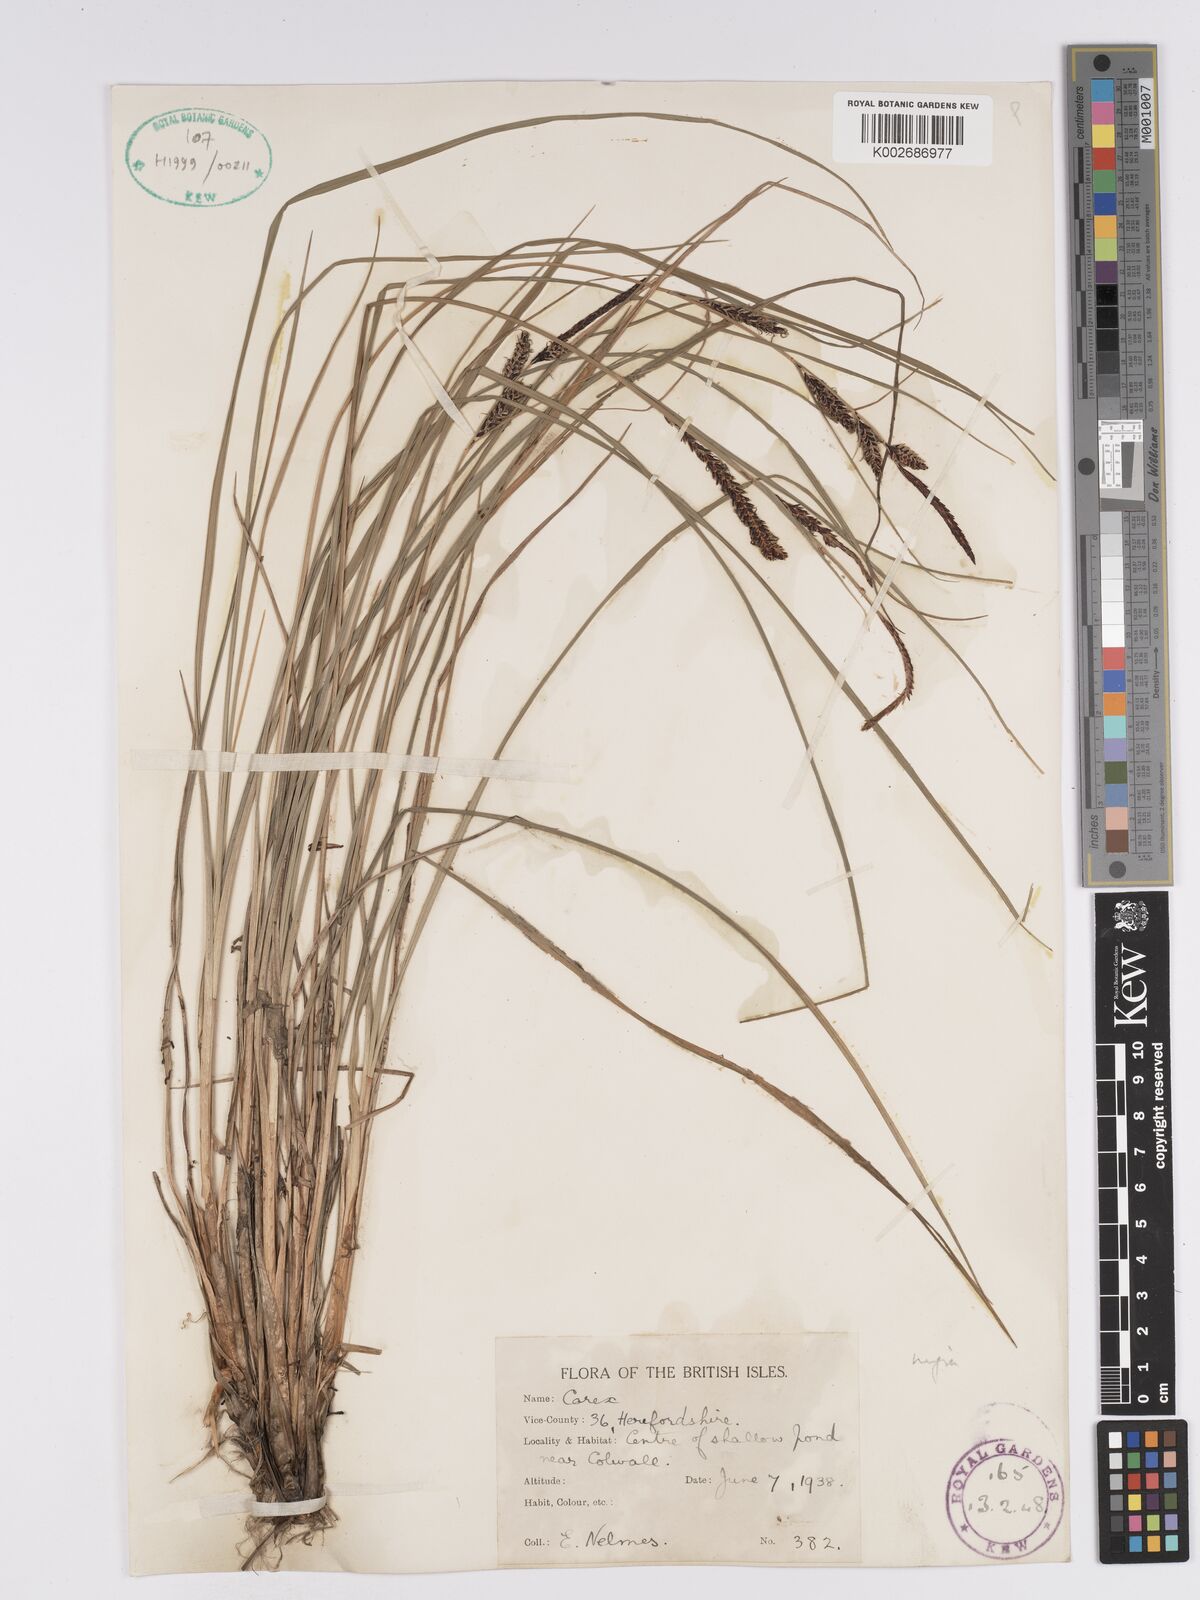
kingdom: Plantae
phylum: Tracheophyta
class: Liliopsida
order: Poales
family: Cyperaceae
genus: Carex
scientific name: Carex nigra
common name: Common sedge
